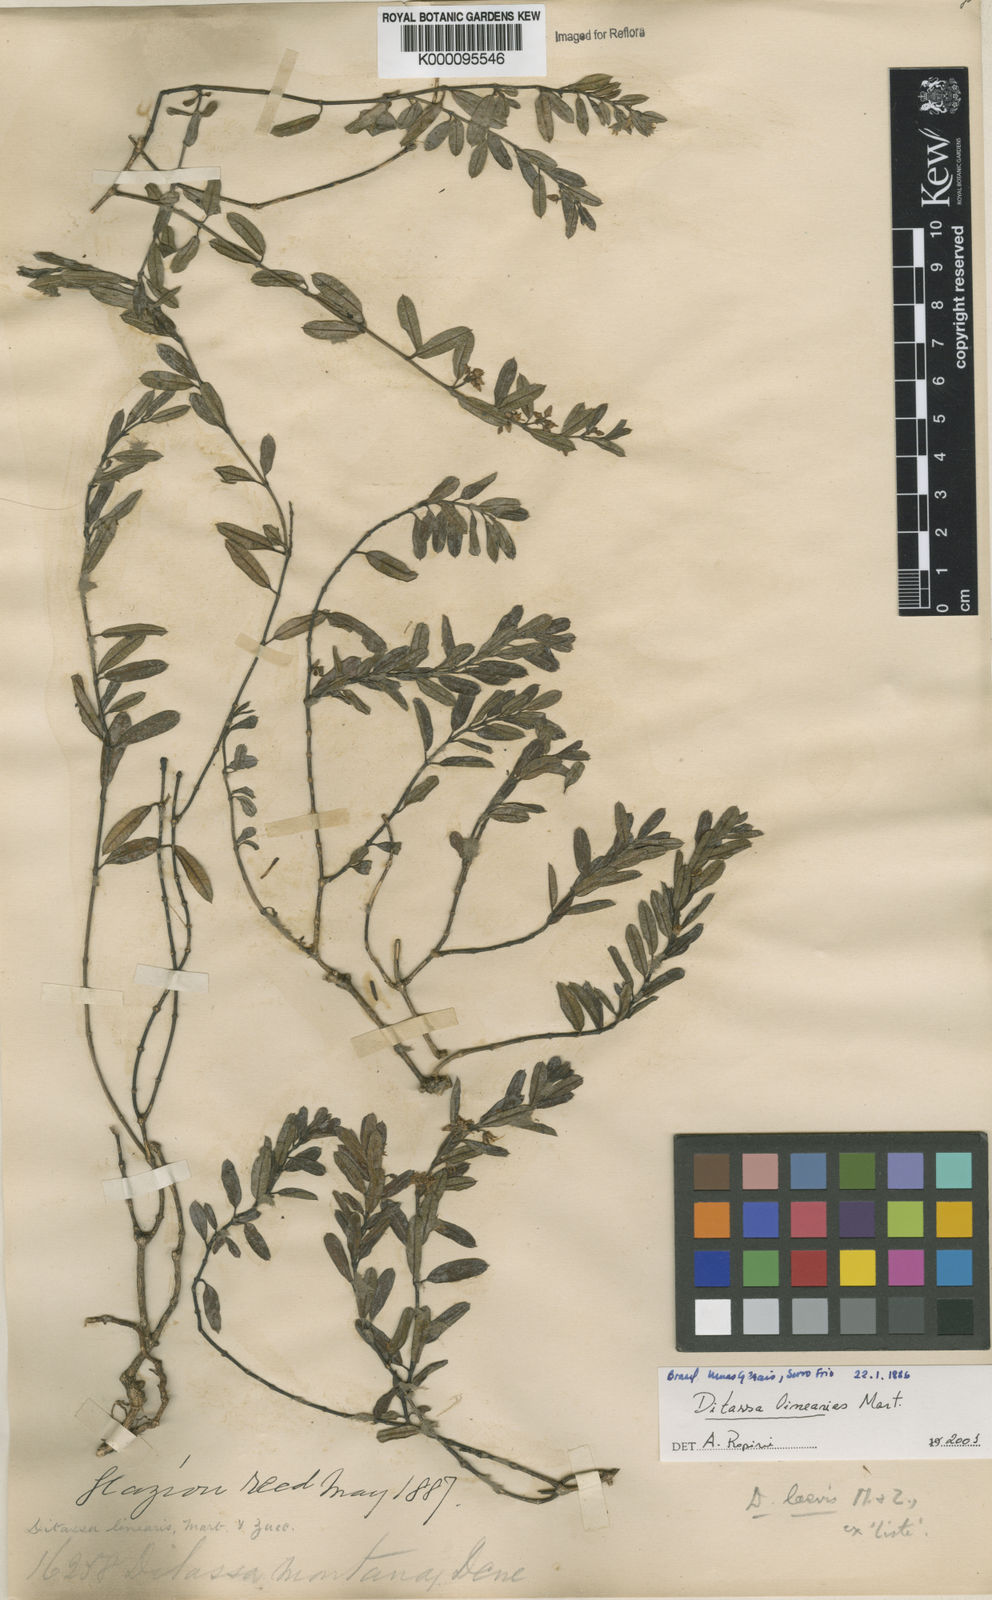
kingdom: Plantae
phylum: Tracheophyta
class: Magnoliopsida
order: Gentianales
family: Apocynaceae
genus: Ditassa
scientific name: Ditassa linearis
